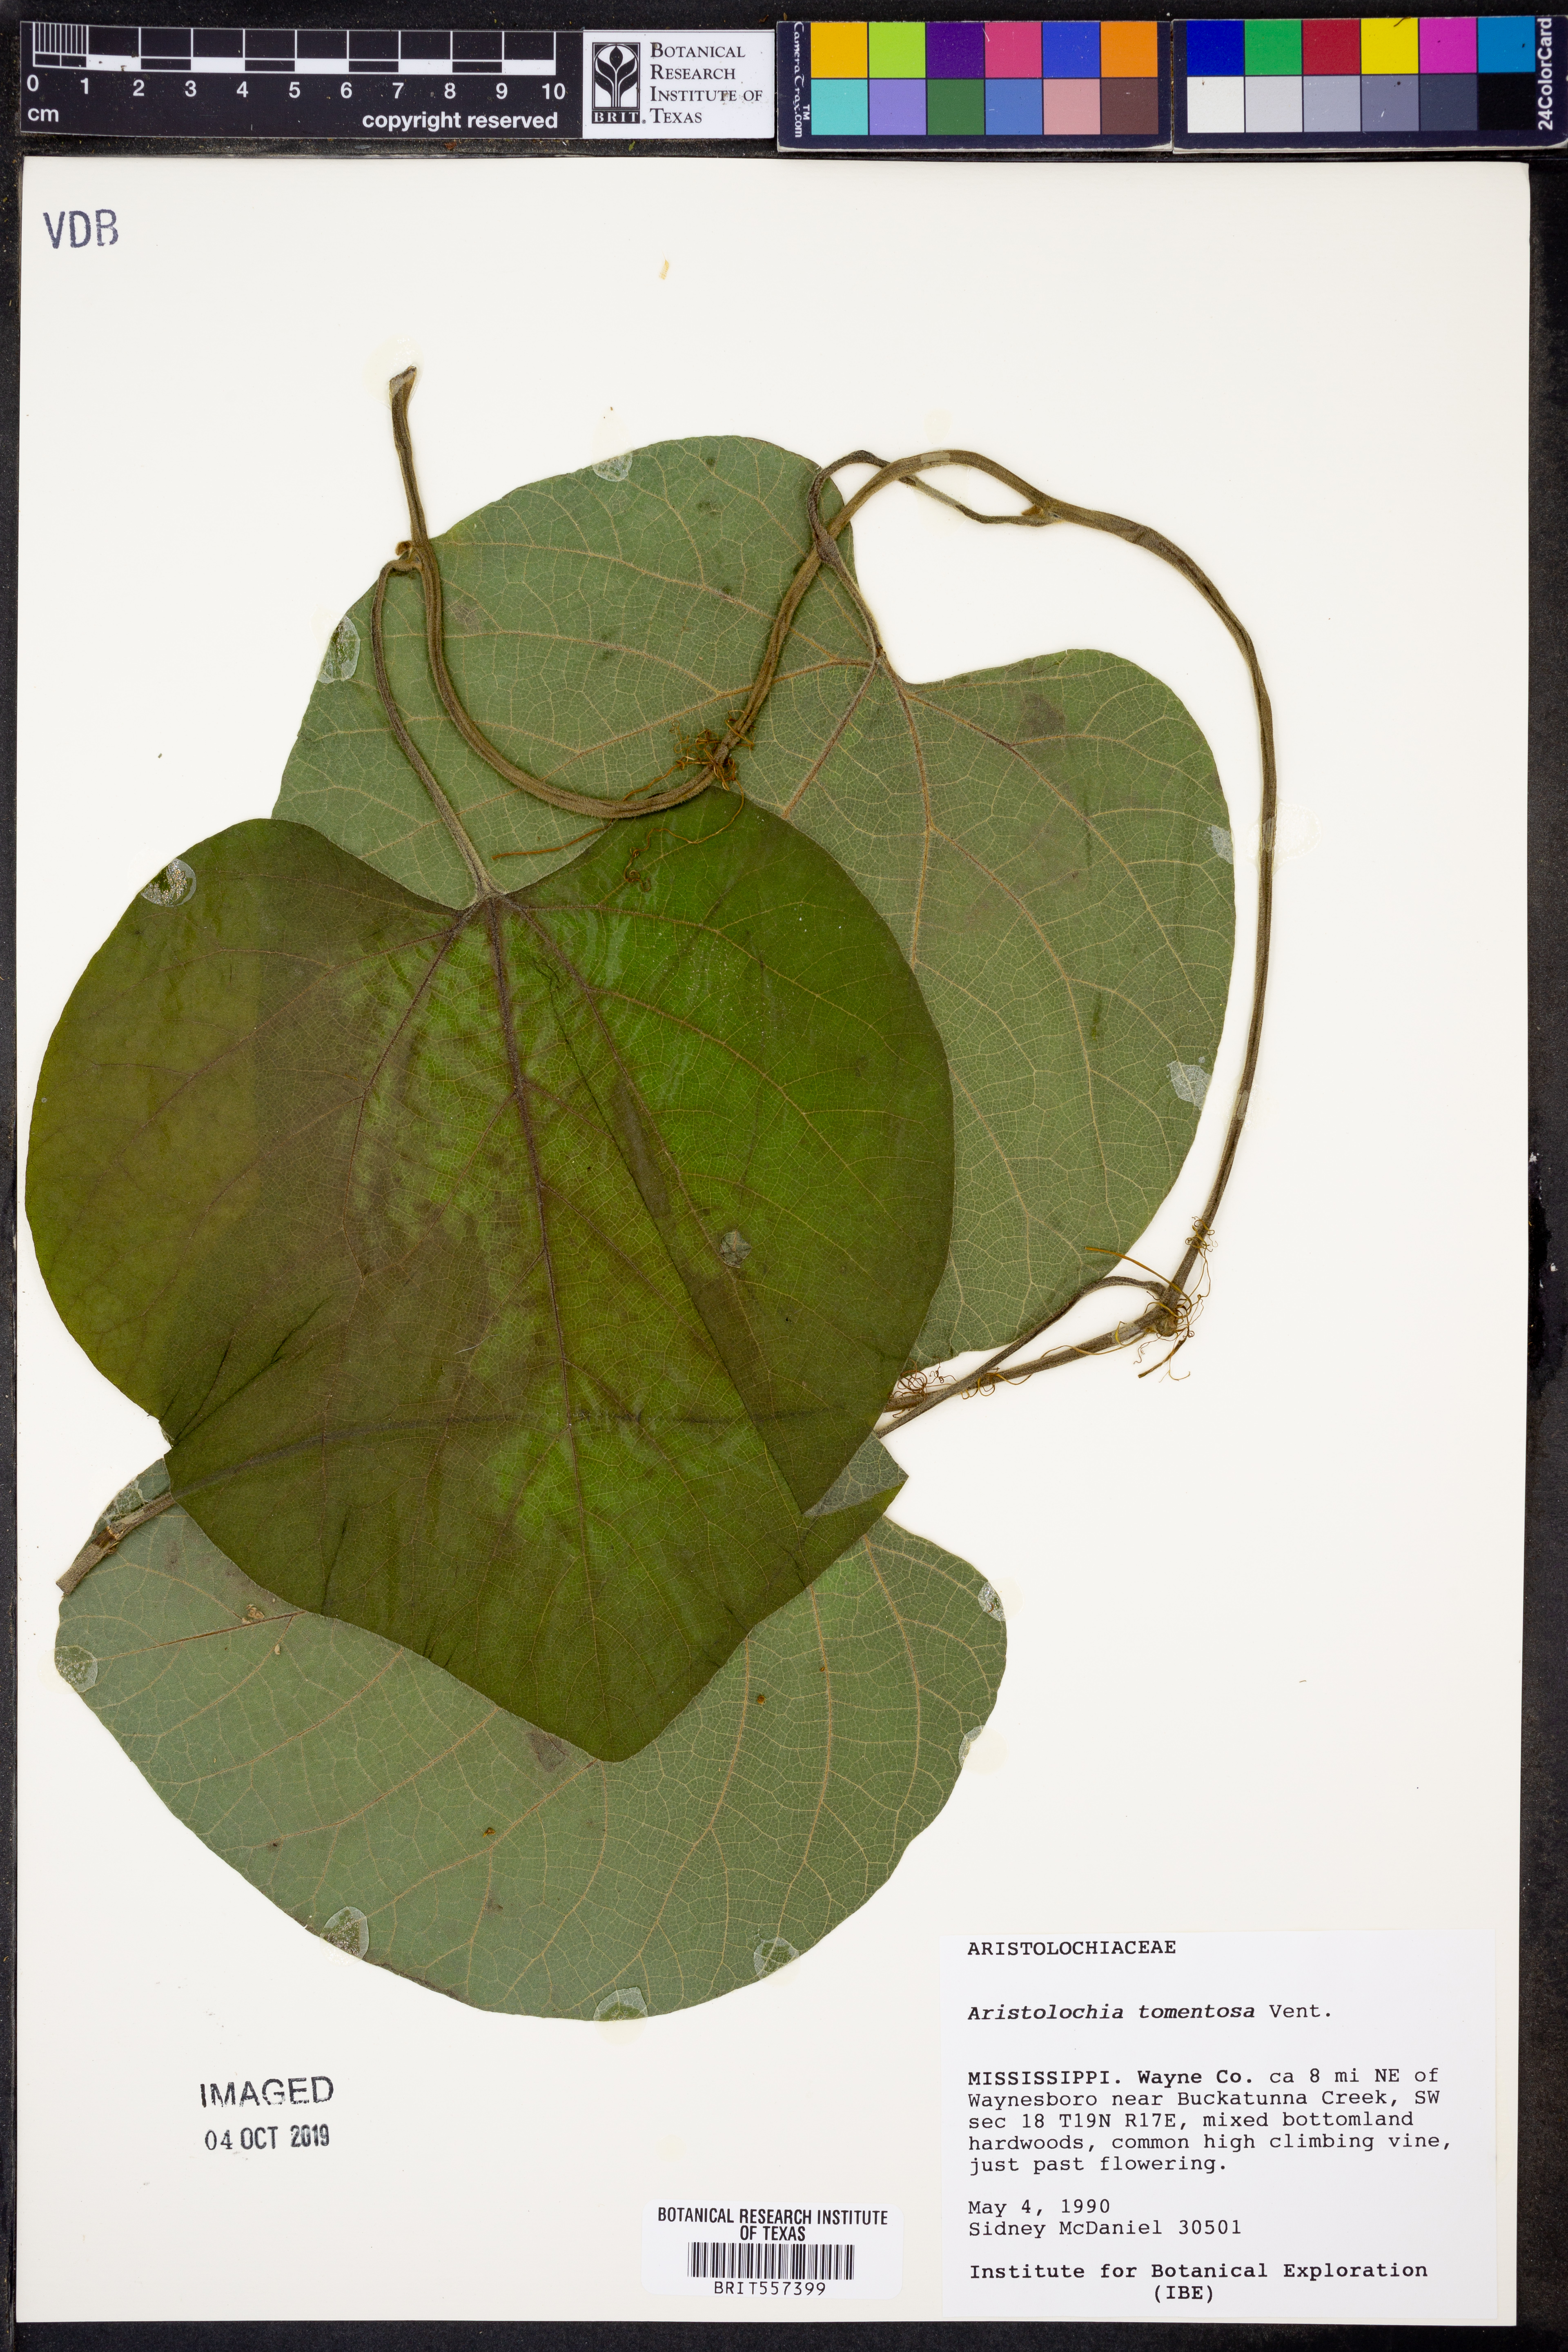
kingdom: Plantae
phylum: Tracheophyta
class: Magnoliopsida
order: Piperales
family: Aristolochiaceae
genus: Isotrema
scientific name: Isotrema tomentosum
